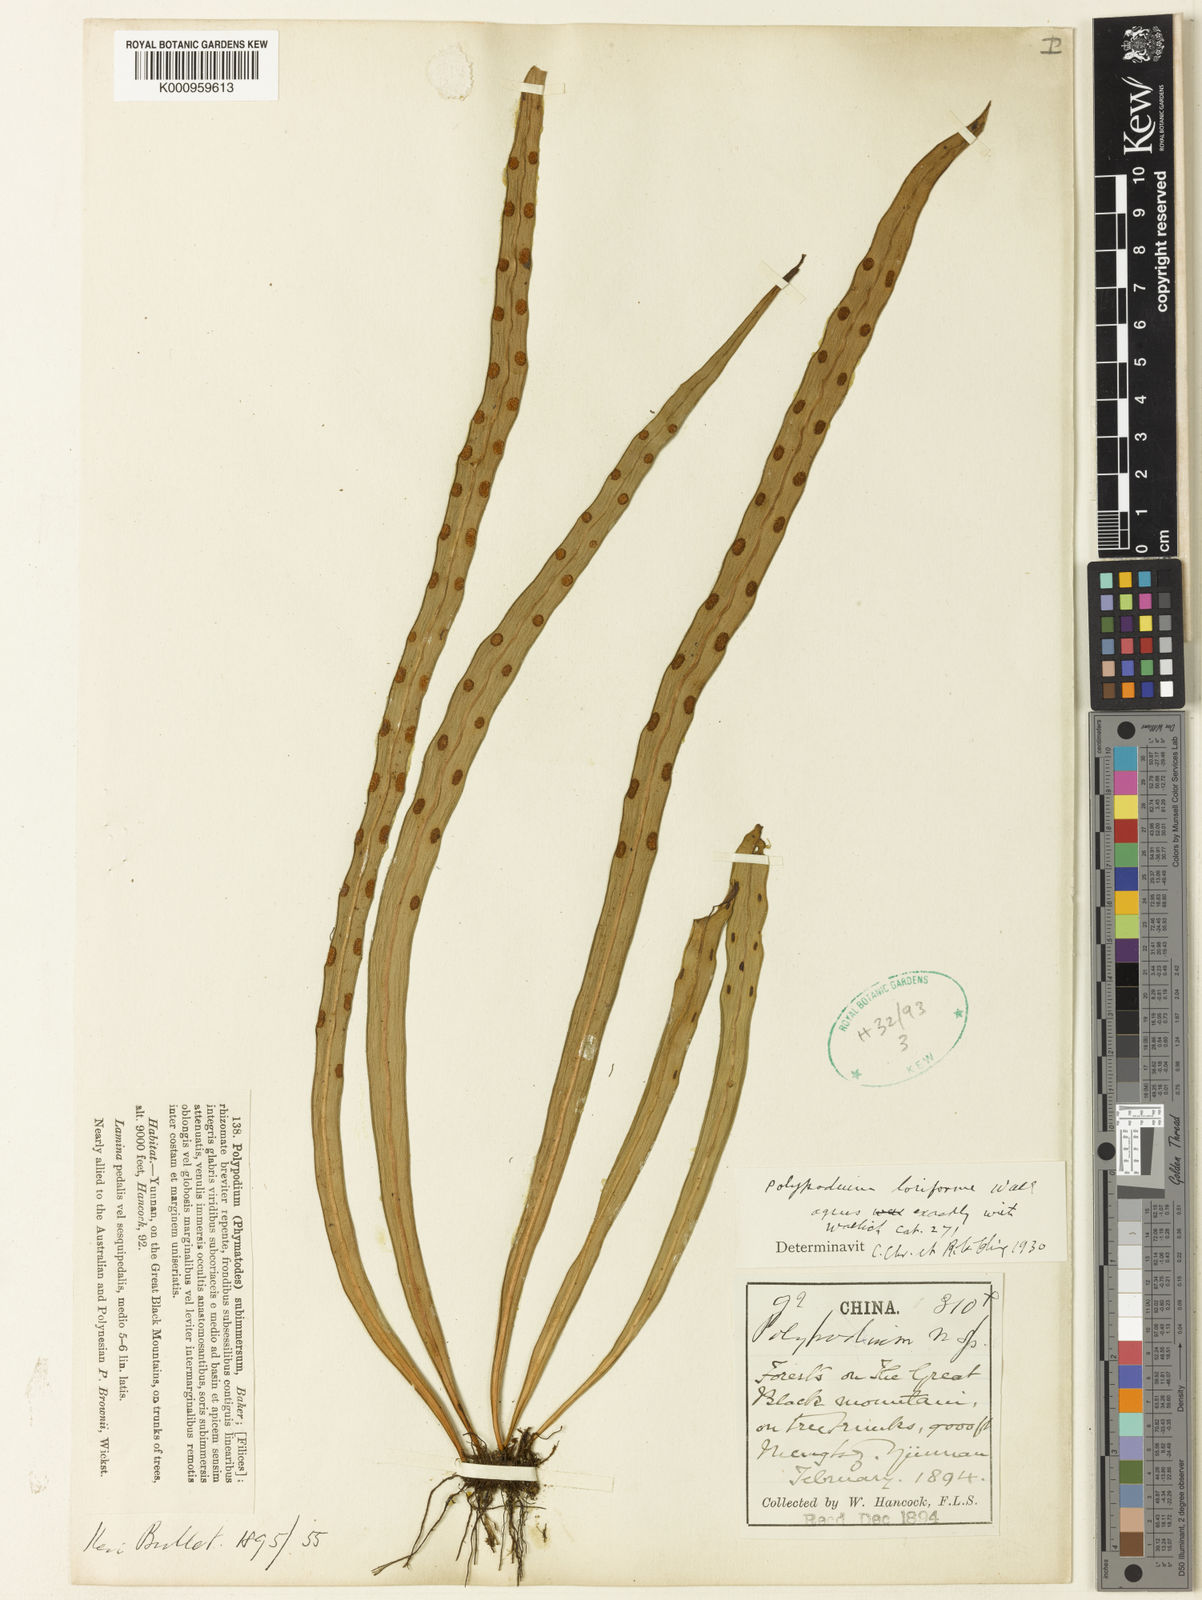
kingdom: Plantae
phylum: Tracheophyta
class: Polypodiopsida
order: Polypodiales
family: Polypodiaceae
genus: Lepisorus
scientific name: Lepisorus loriformis
